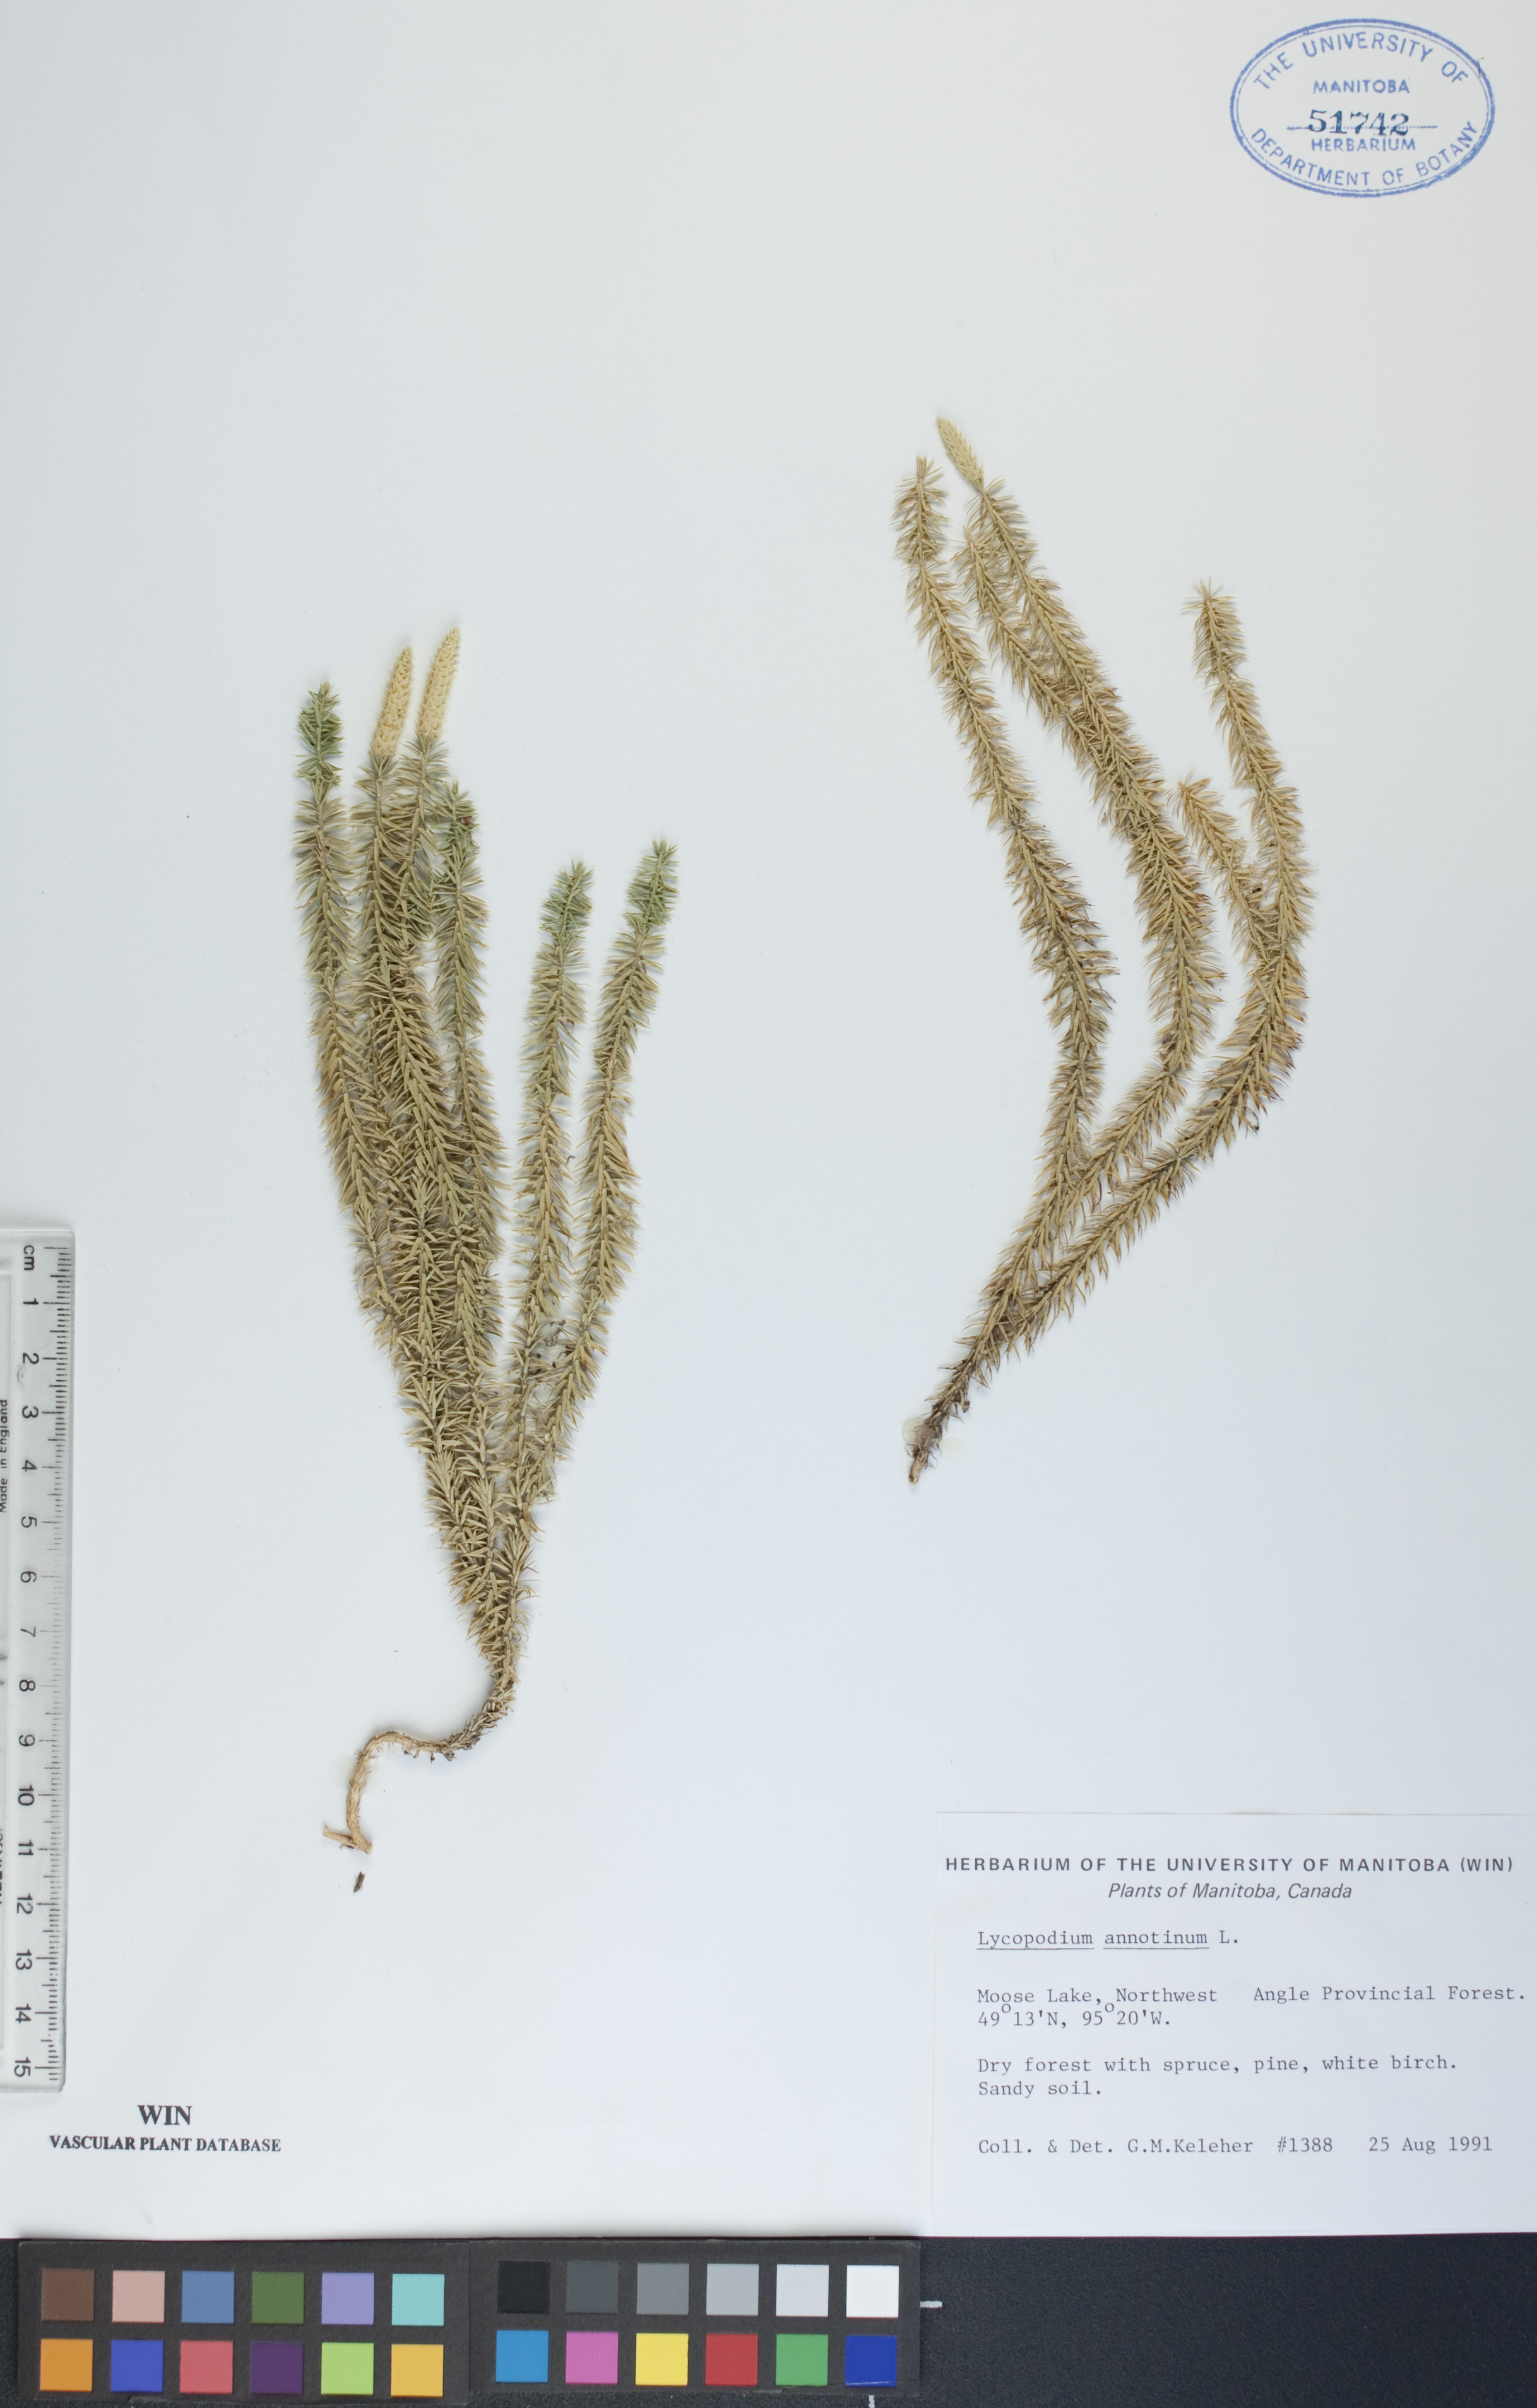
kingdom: Plantae
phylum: Tracheophyta
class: Lycopodiopsida
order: Lycopodiales
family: Lycopodiaceae
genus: Spinulum
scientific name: Spinulum annotinum
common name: Interrupted club-moss
